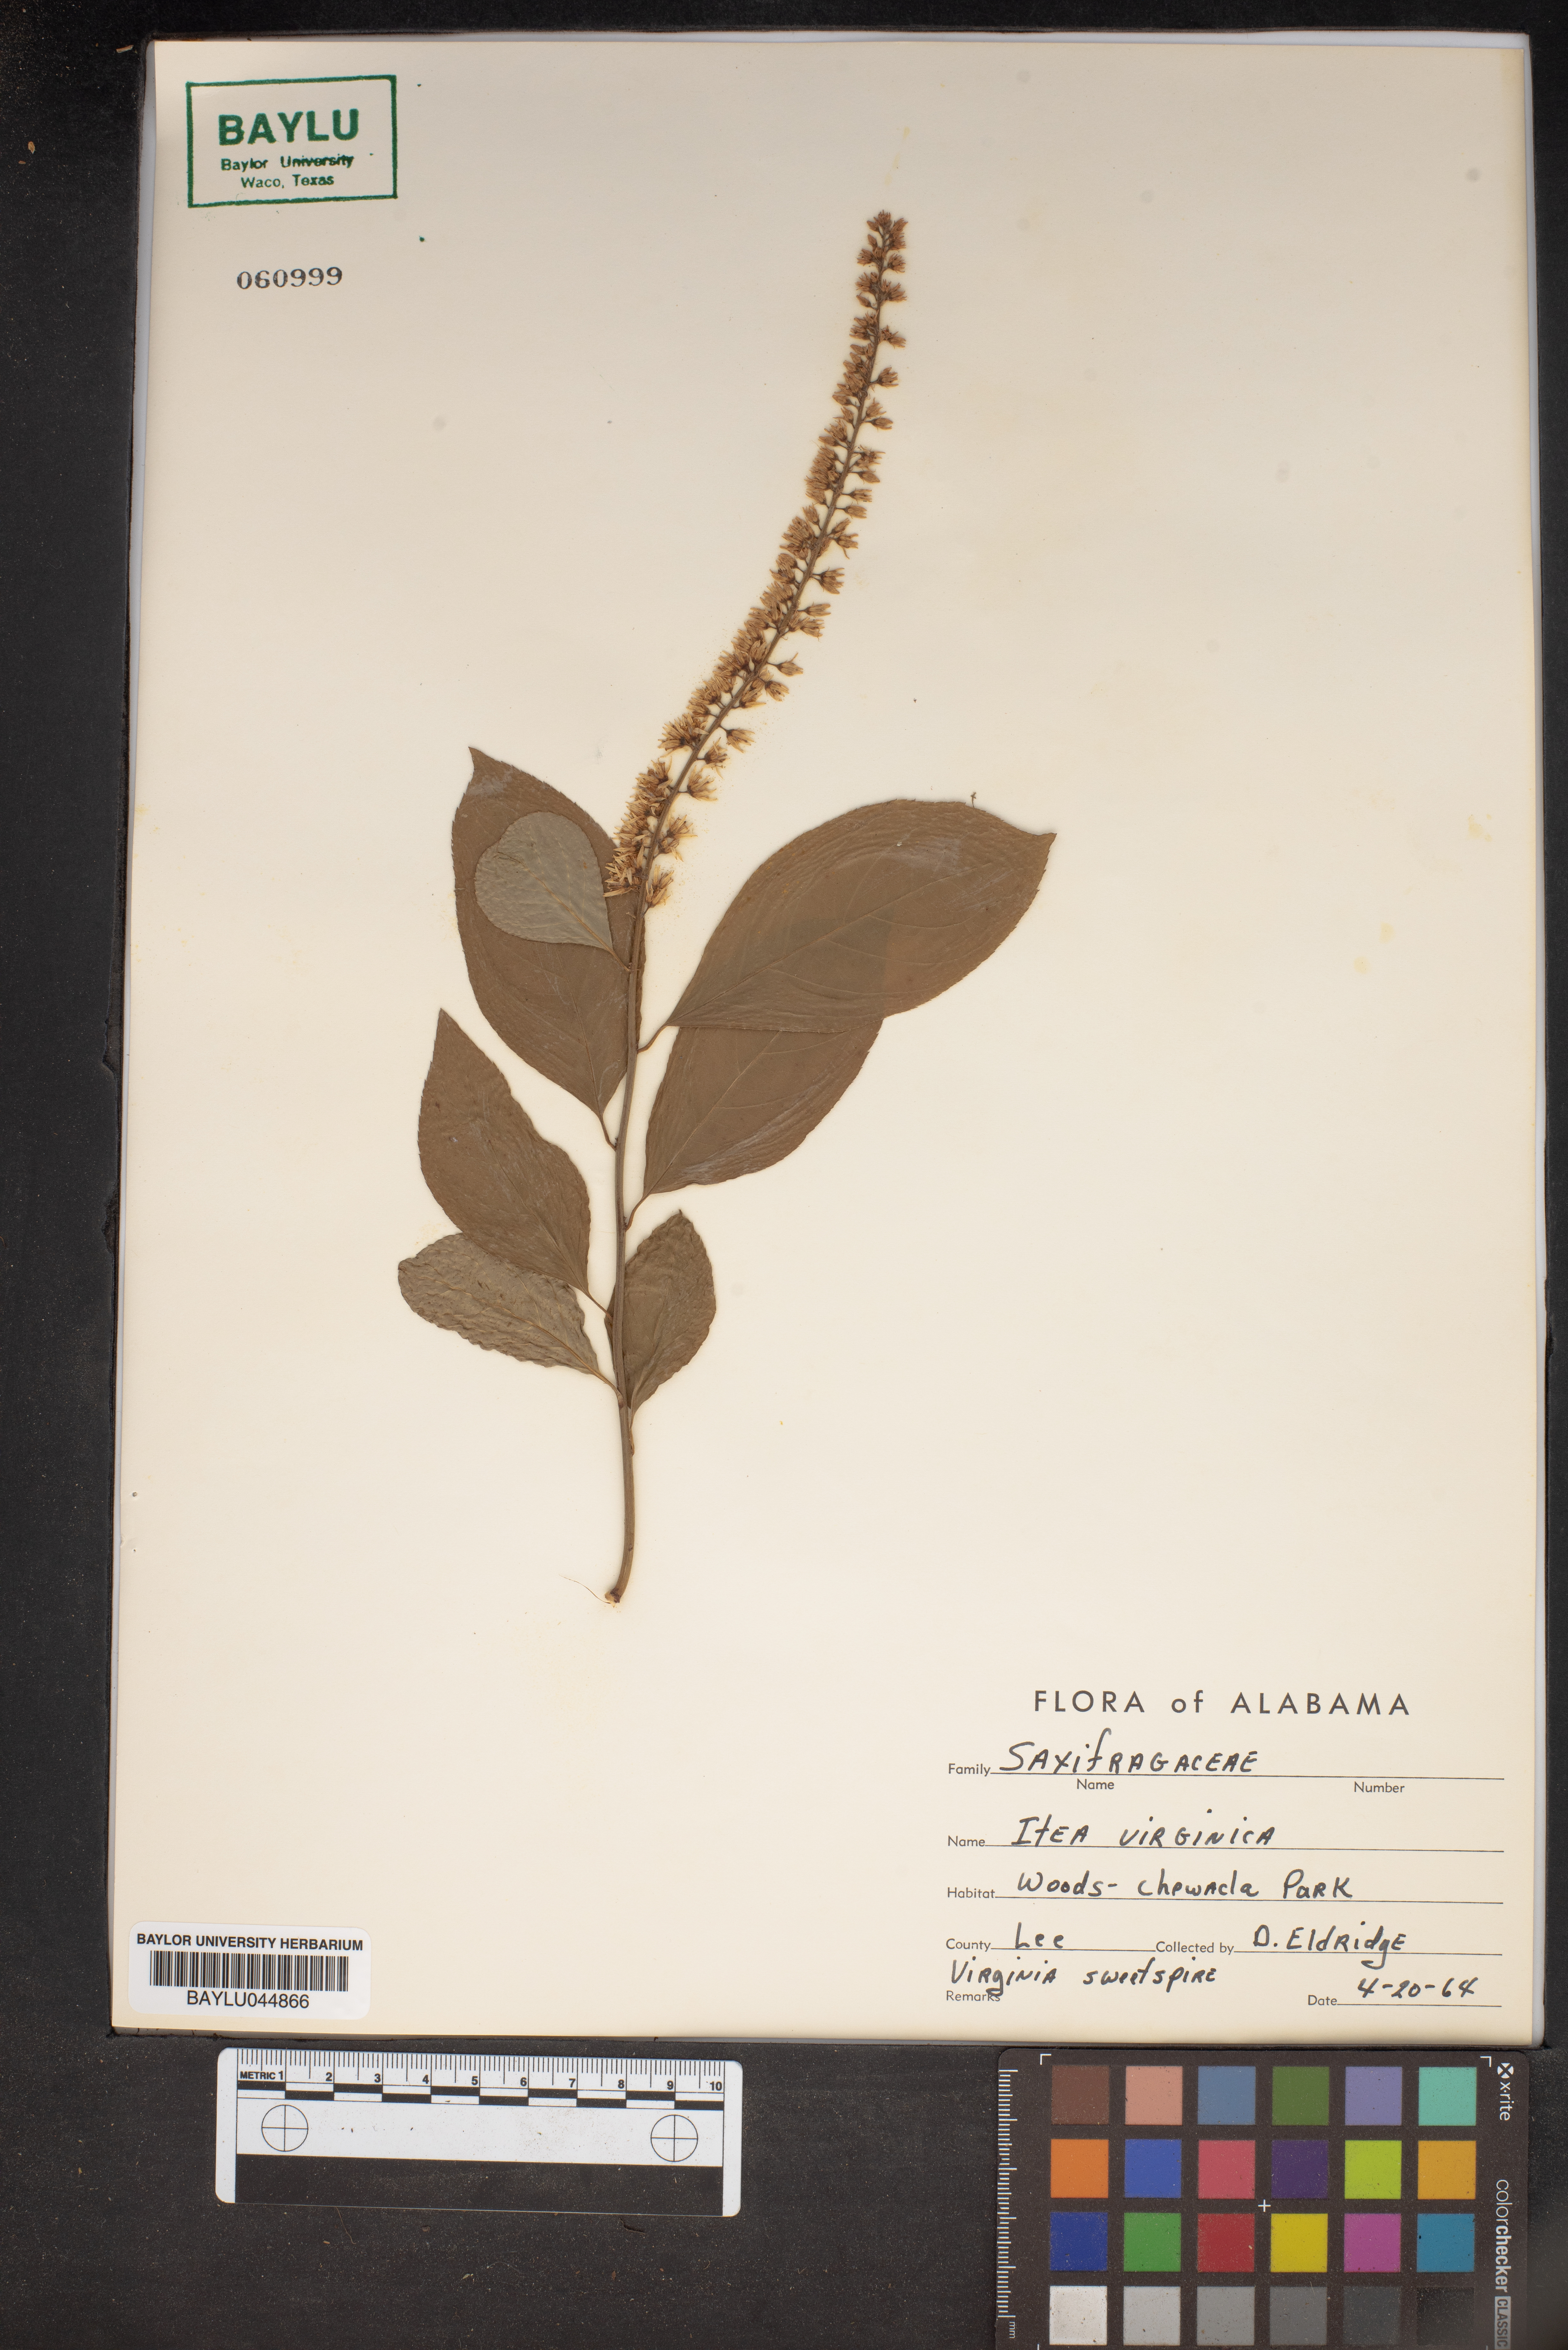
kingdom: Plantae
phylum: Tracheophyta
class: Magnoliopsida
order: Saxifragales
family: Iteaceae
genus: Itea
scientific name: Itea virginica
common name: Sweetspire
